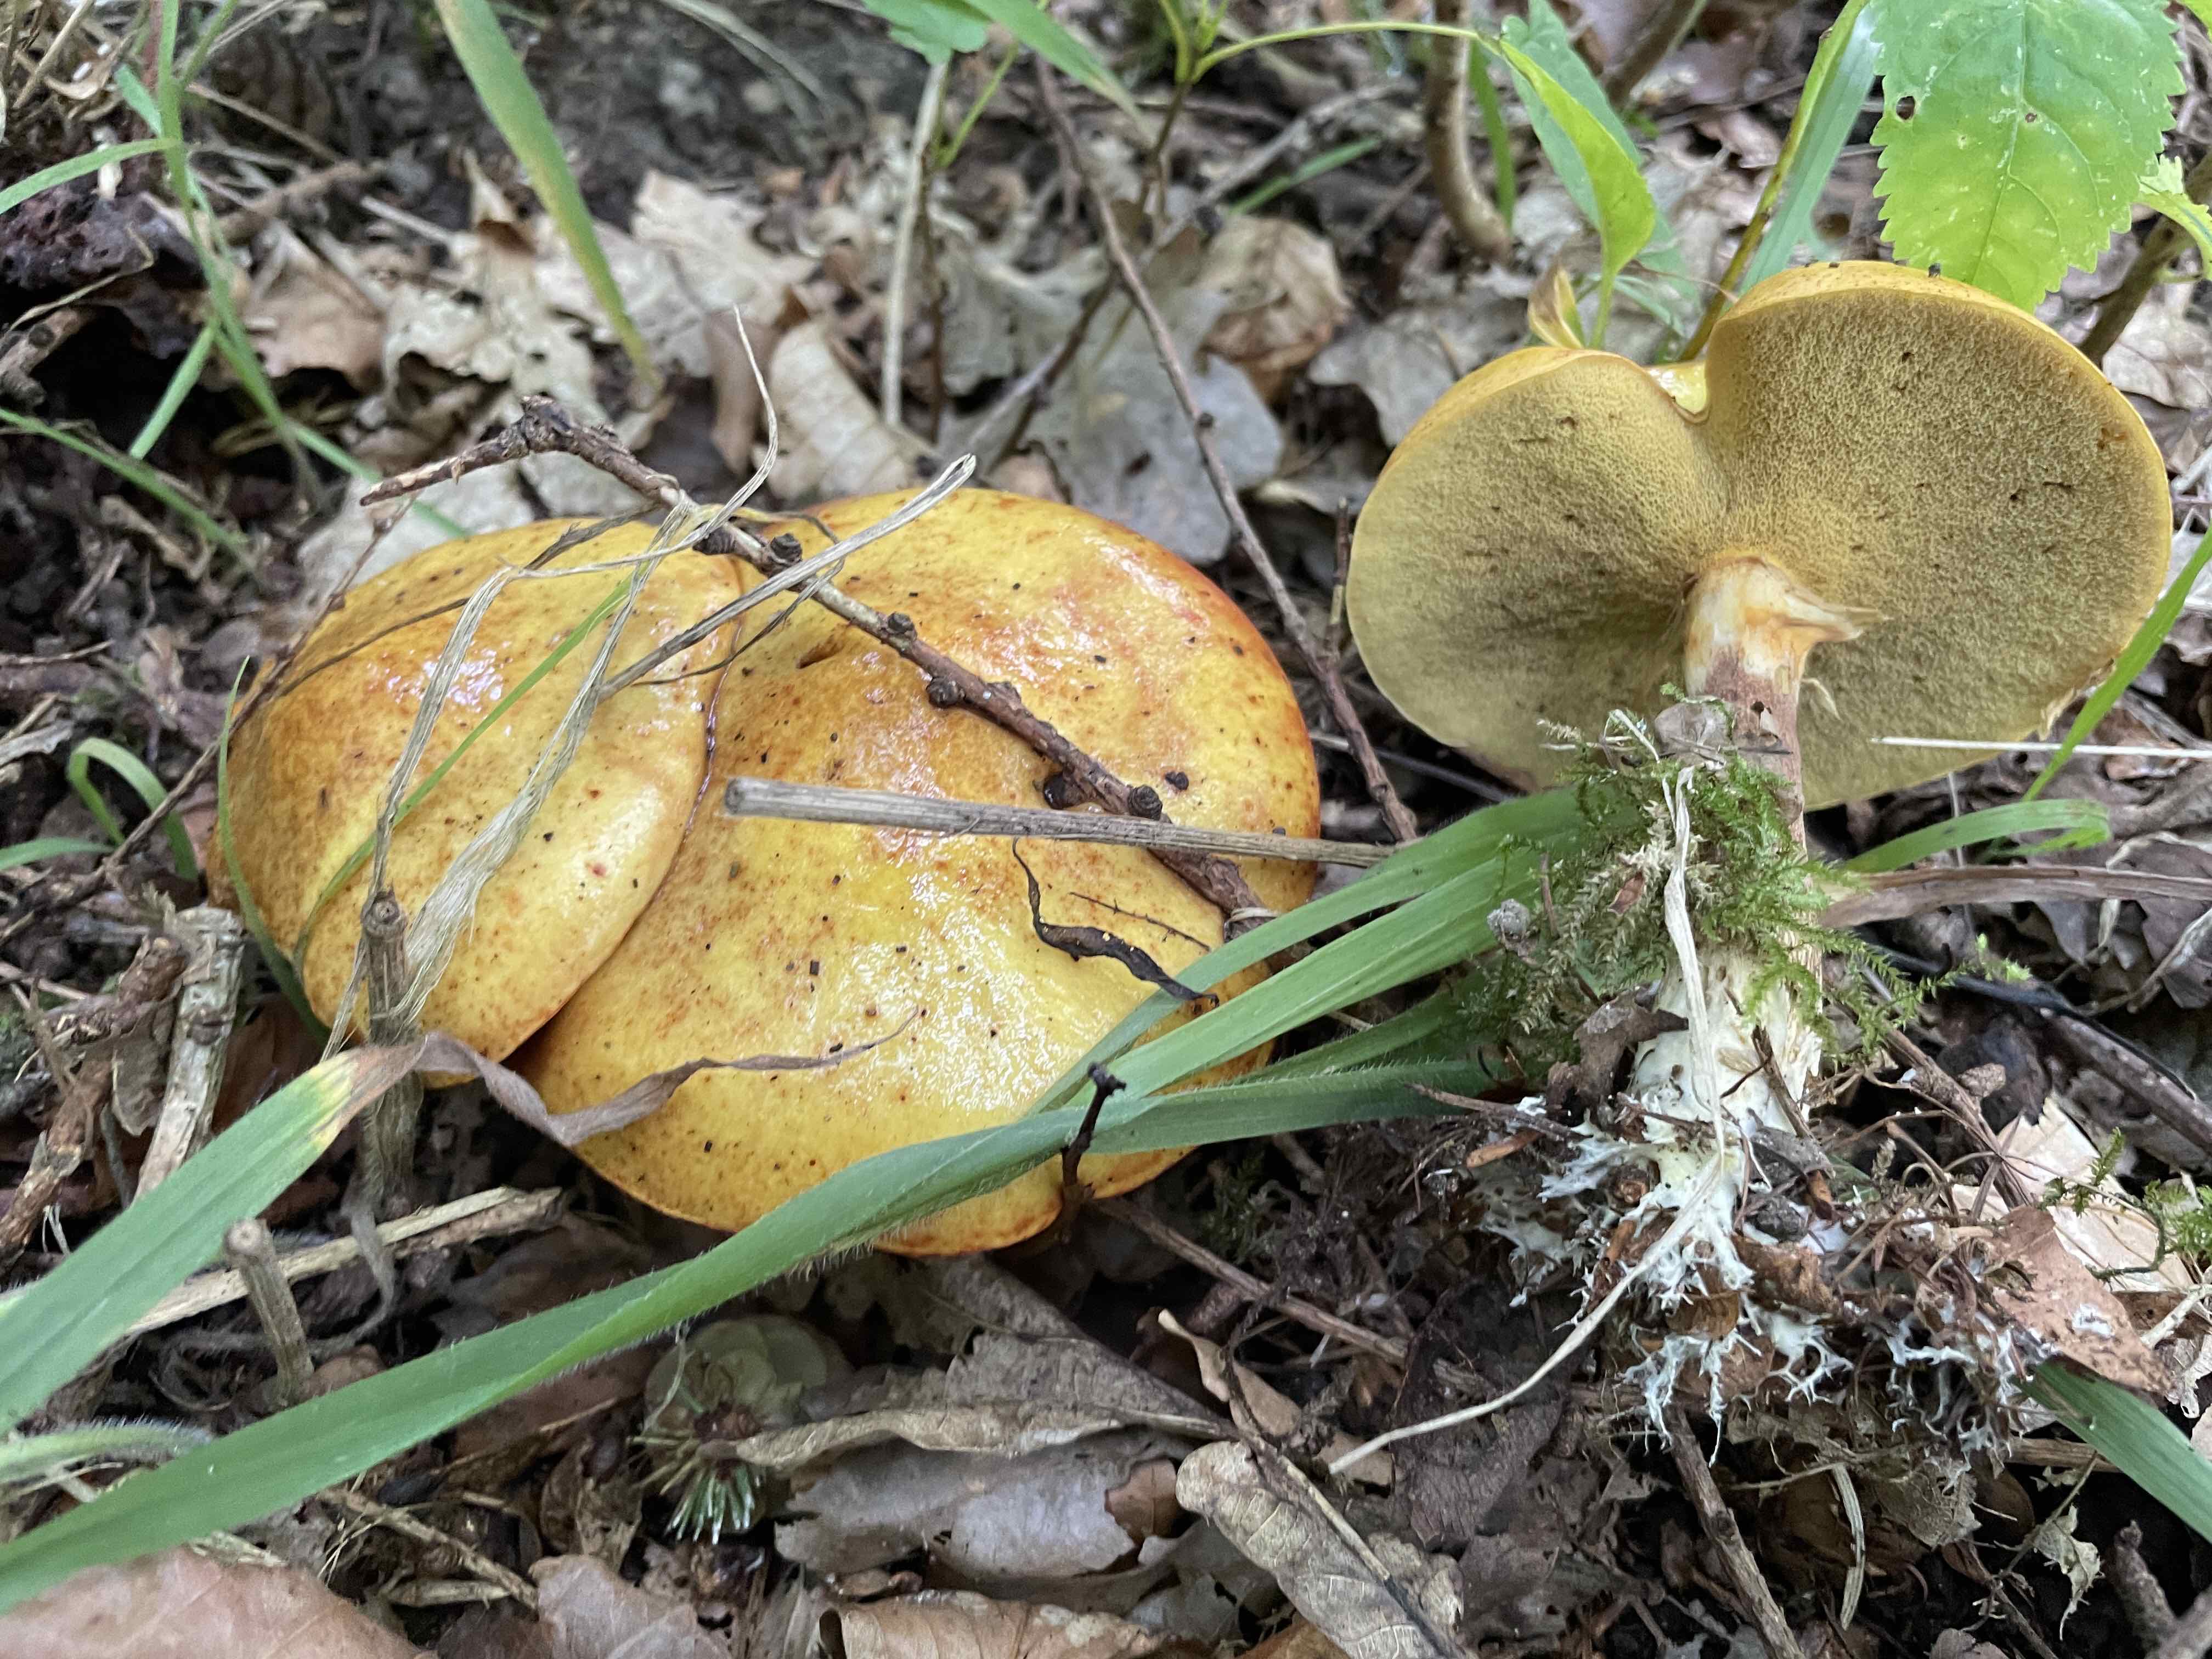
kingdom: Fungi
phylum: Basidiomycota
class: Agaricomycetes
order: Boletales
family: Suillaceae
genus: Suillus
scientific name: Suillus grevillei
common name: lærke-slimrørhat
